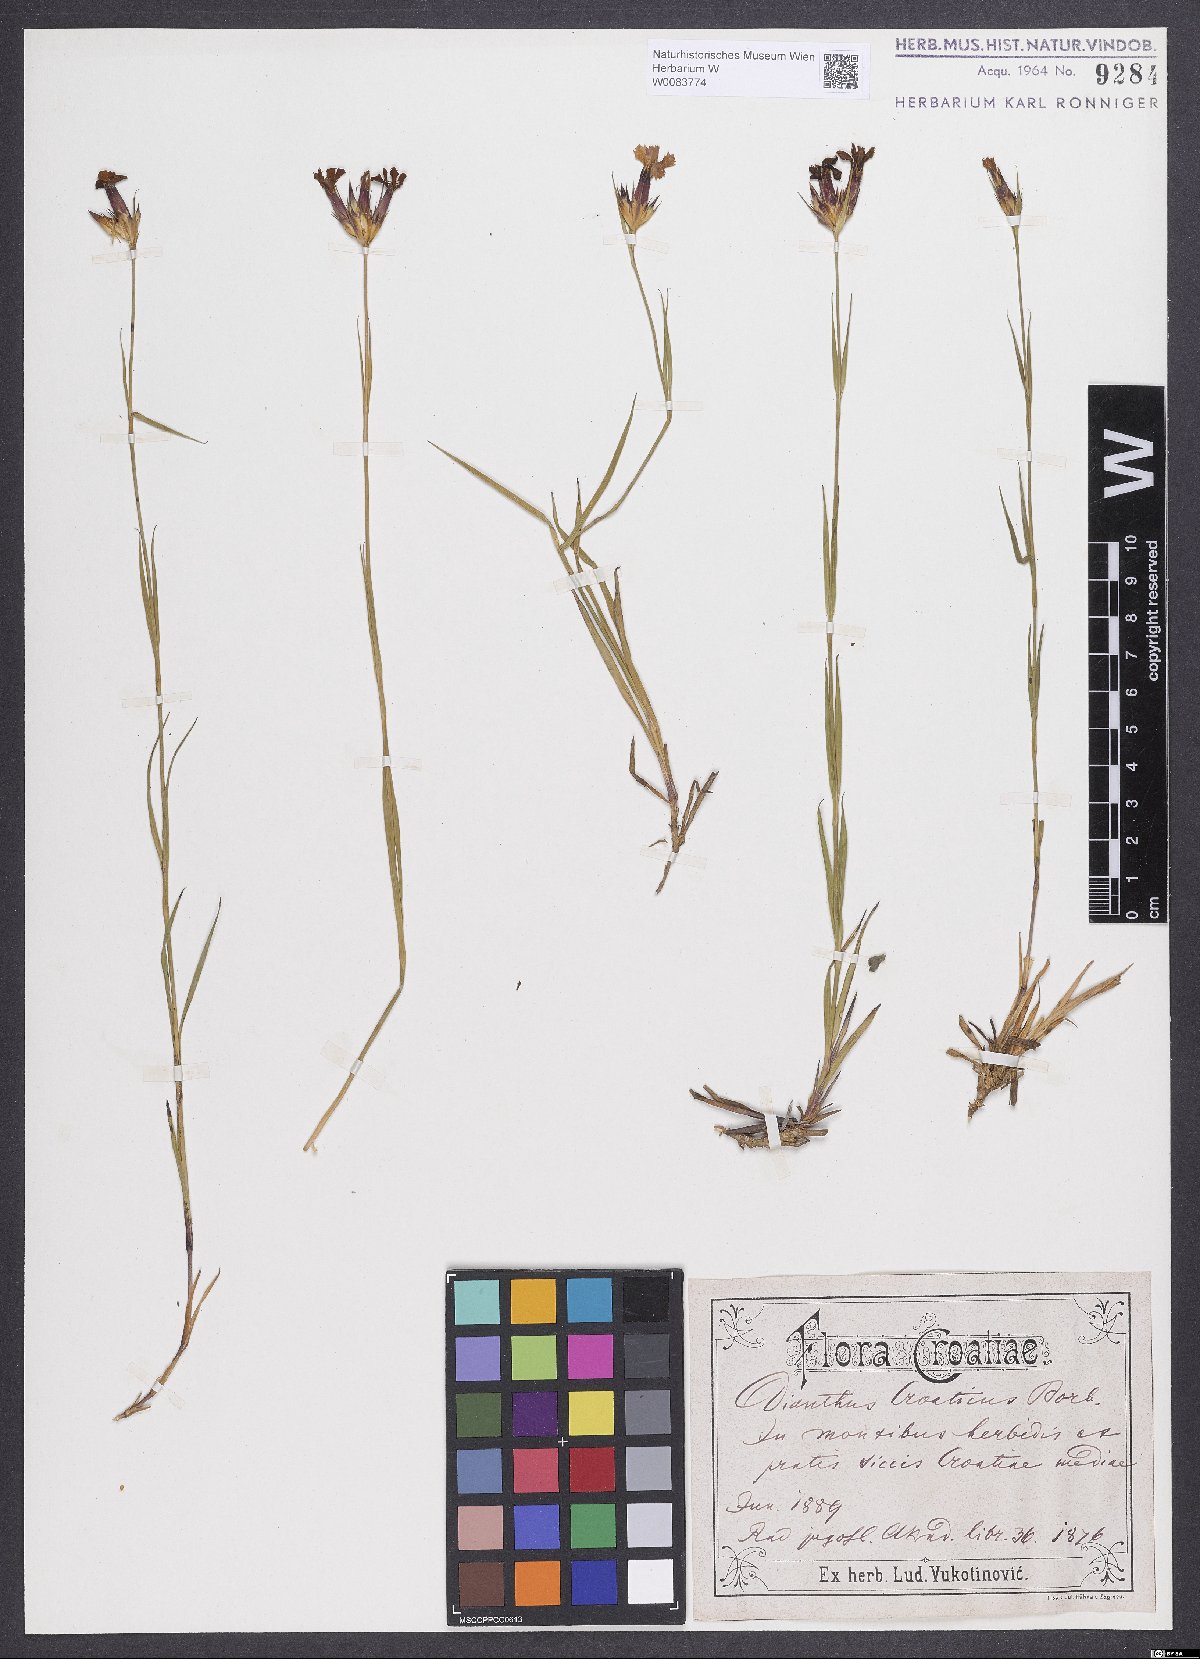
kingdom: Plantae
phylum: Tracheophyta
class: Magnoliopsida
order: Caryophyllales
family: Caryophyllaceae
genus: Dianthus
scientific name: Dianthus giganteus
